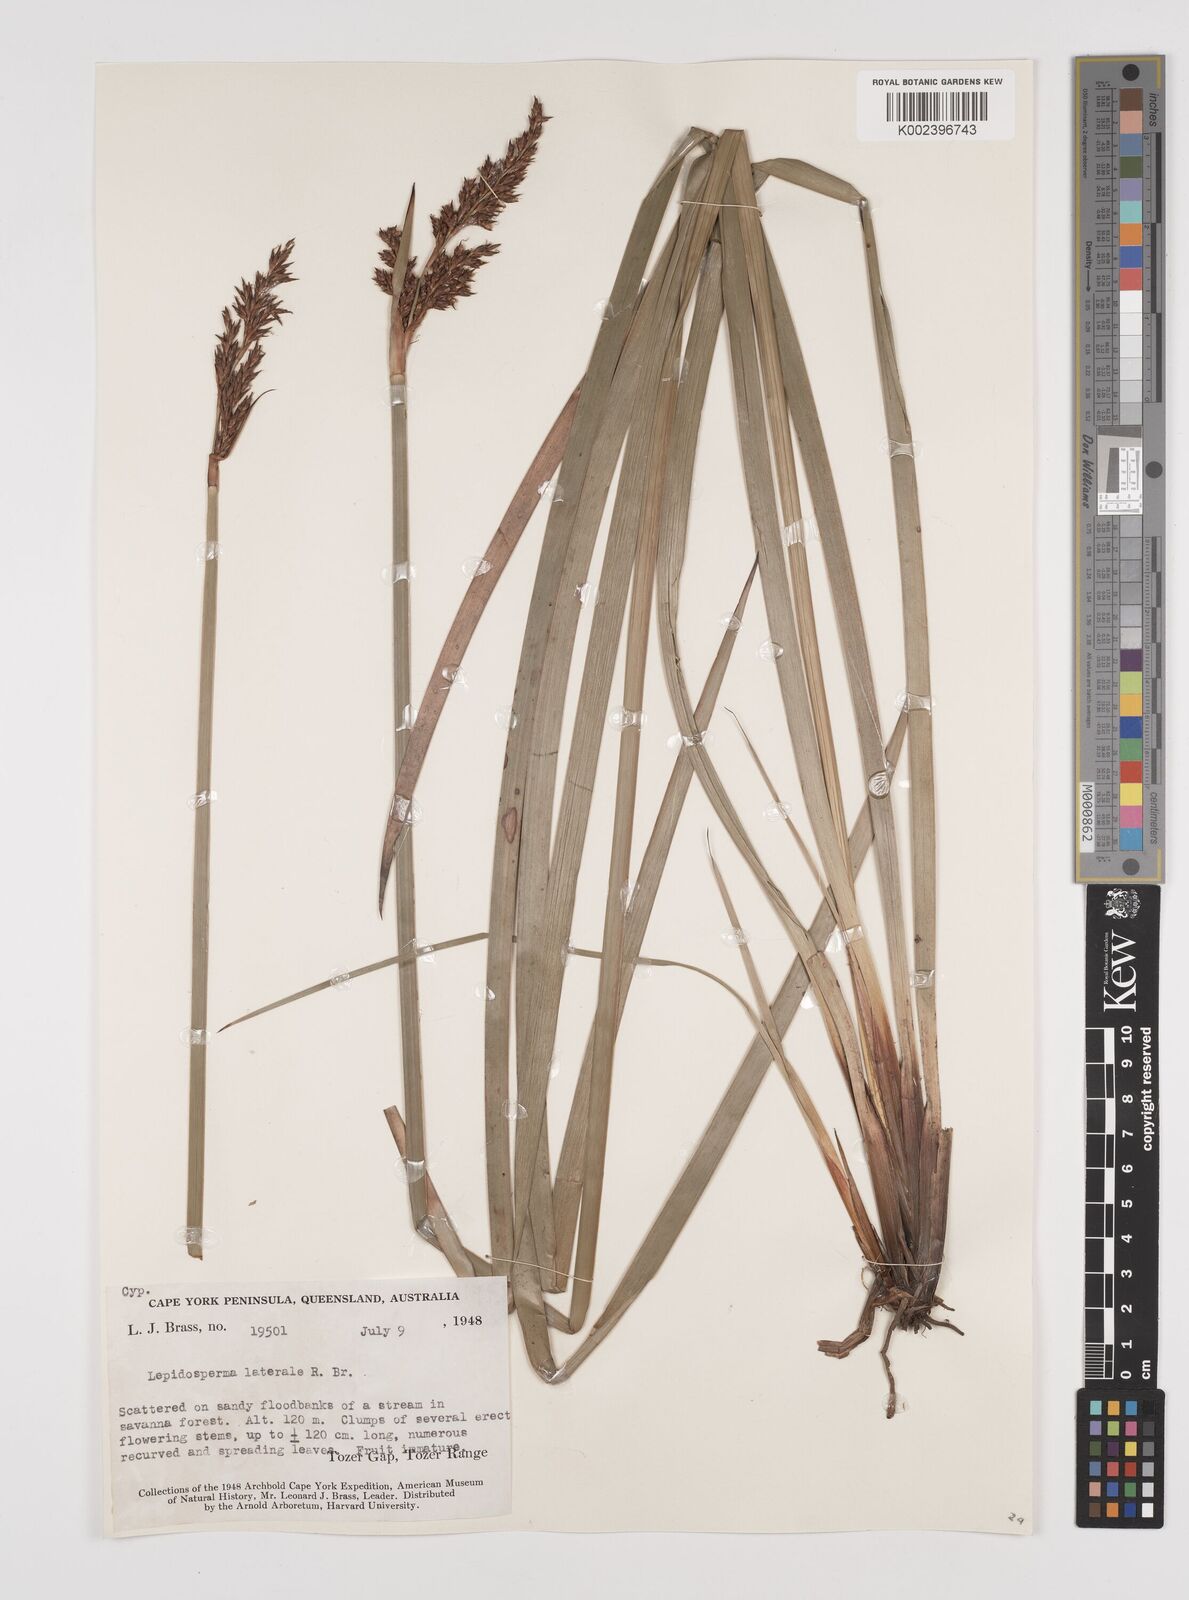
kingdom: Plantae
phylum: Tracheophyta
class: Liliopsida
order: Poales
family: Cyperaceae
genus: Lepidosperma
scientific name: Lepidosperma laterale
